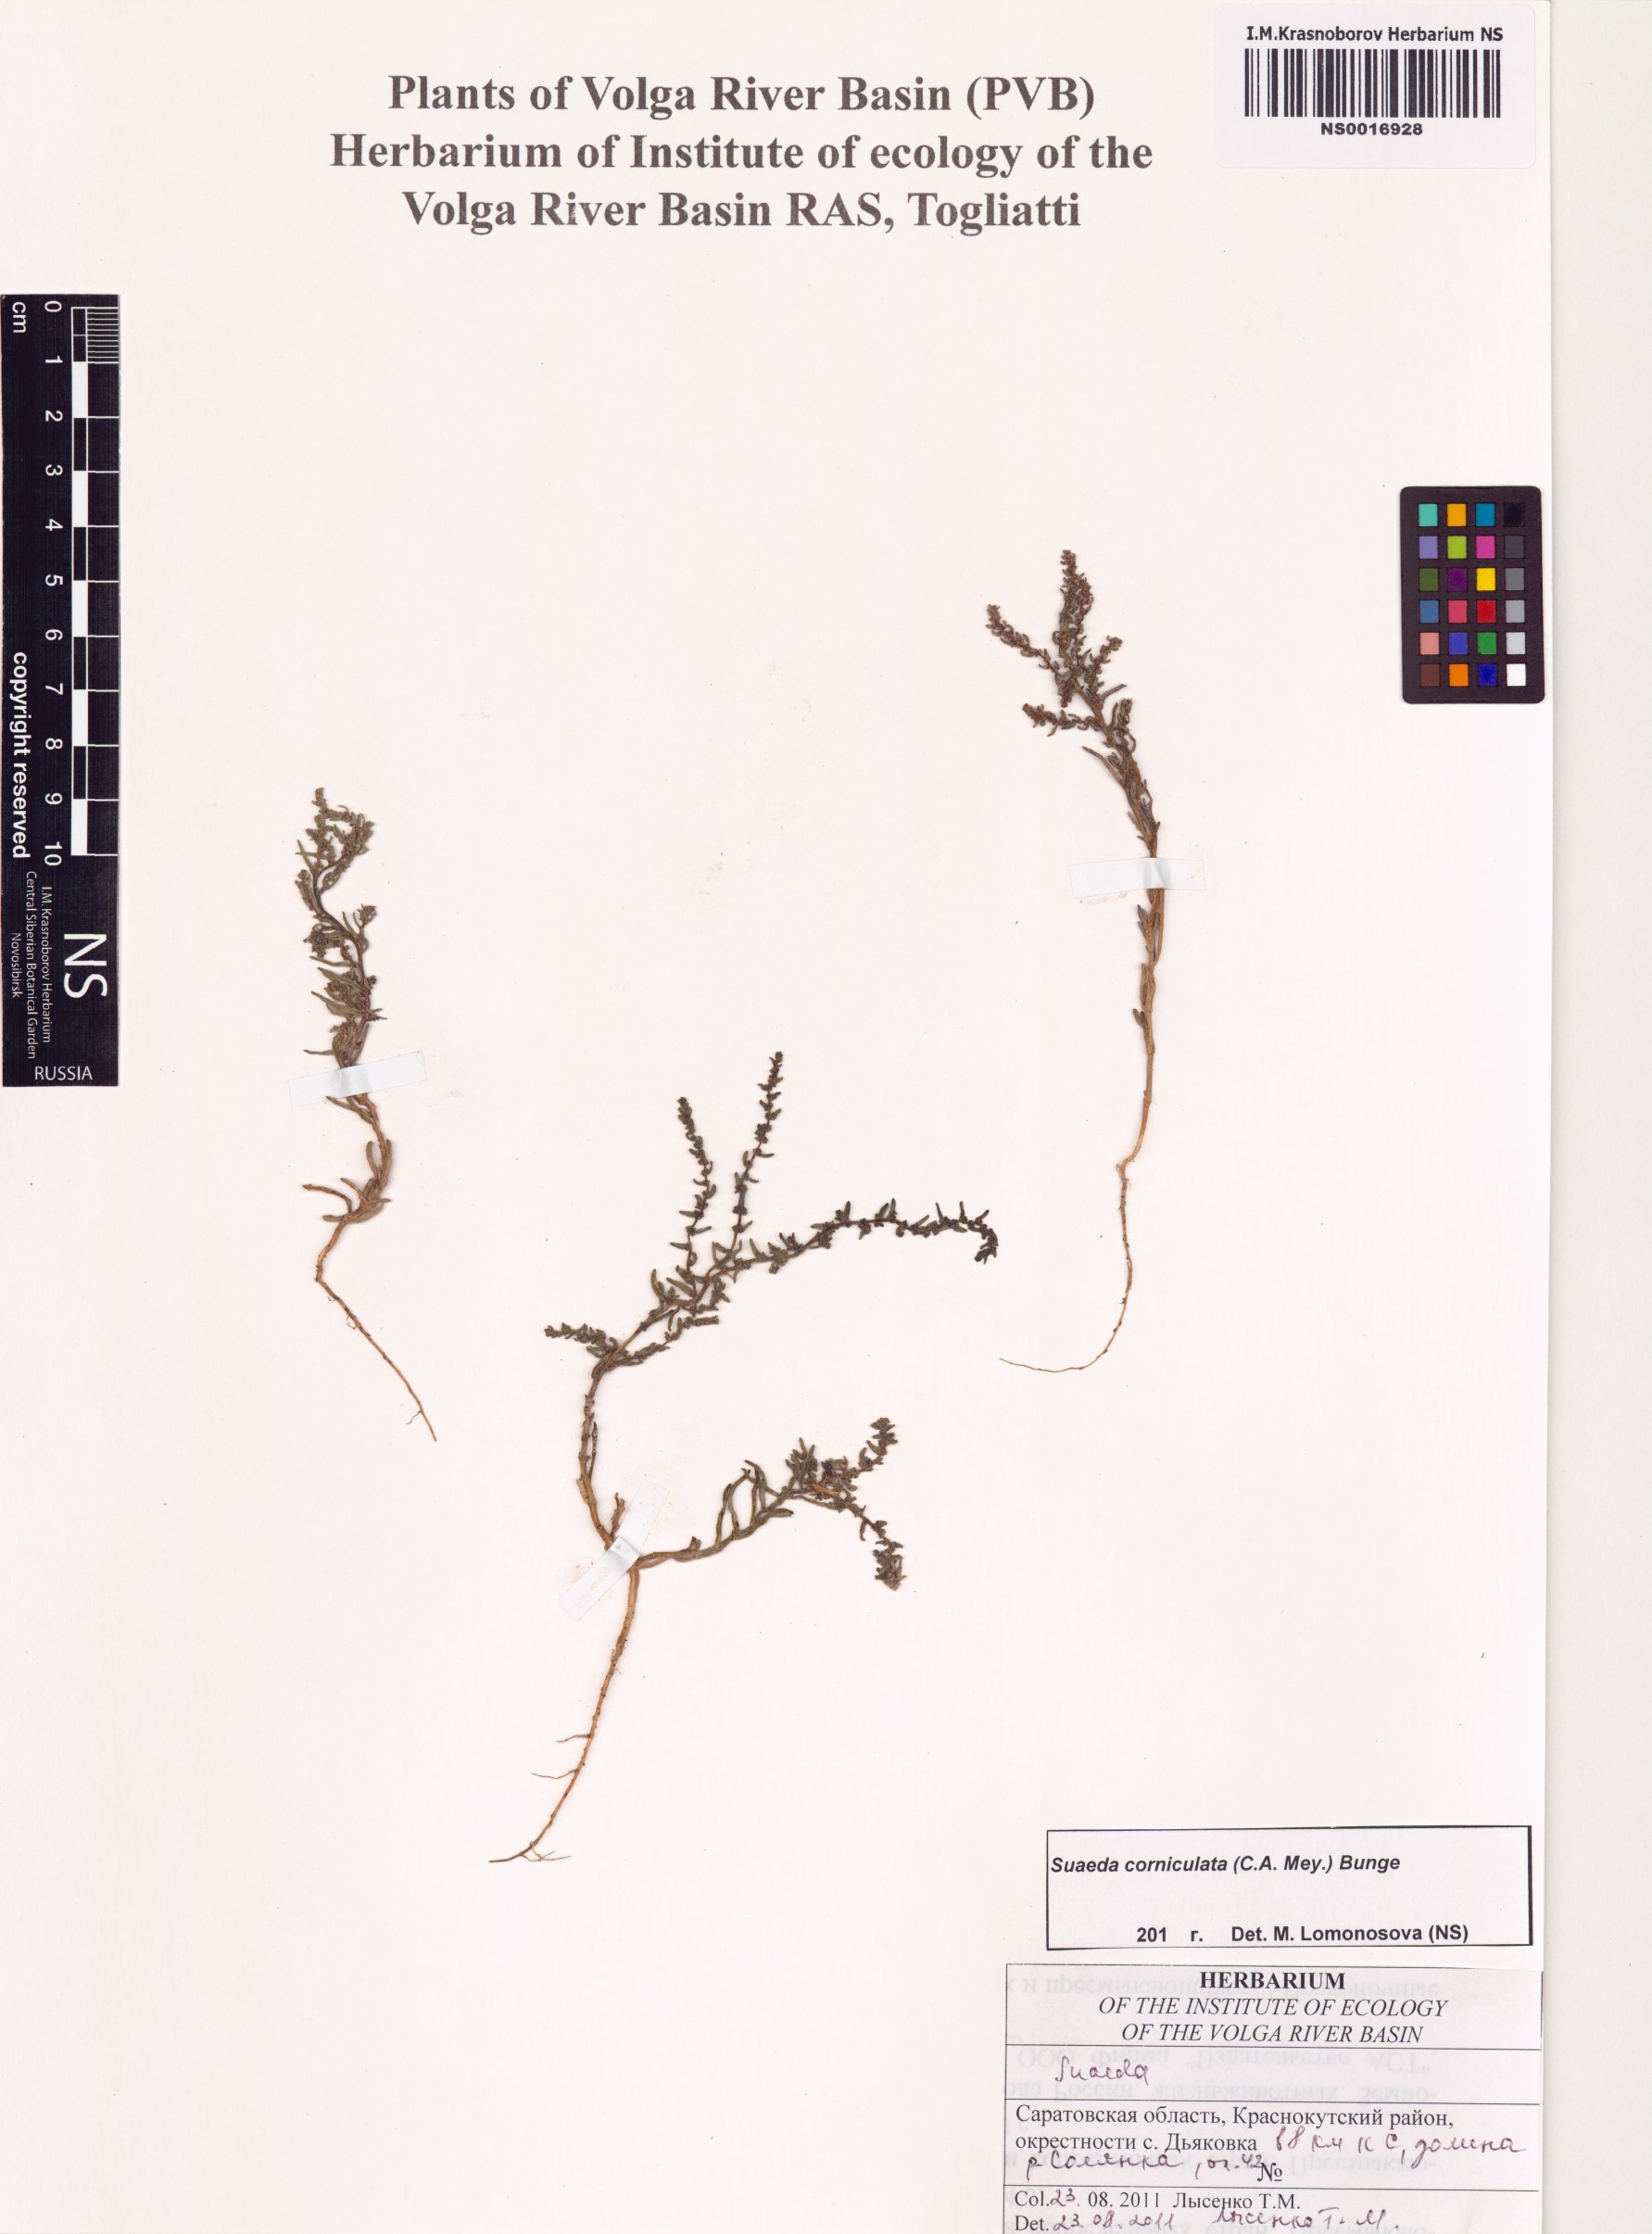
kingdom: Plantae
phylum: Tracheophyta
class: Magnoliopsida
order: Caryophyllales
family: Amaranthaceae
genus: Suaeda
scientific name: Suaeda corniculata
